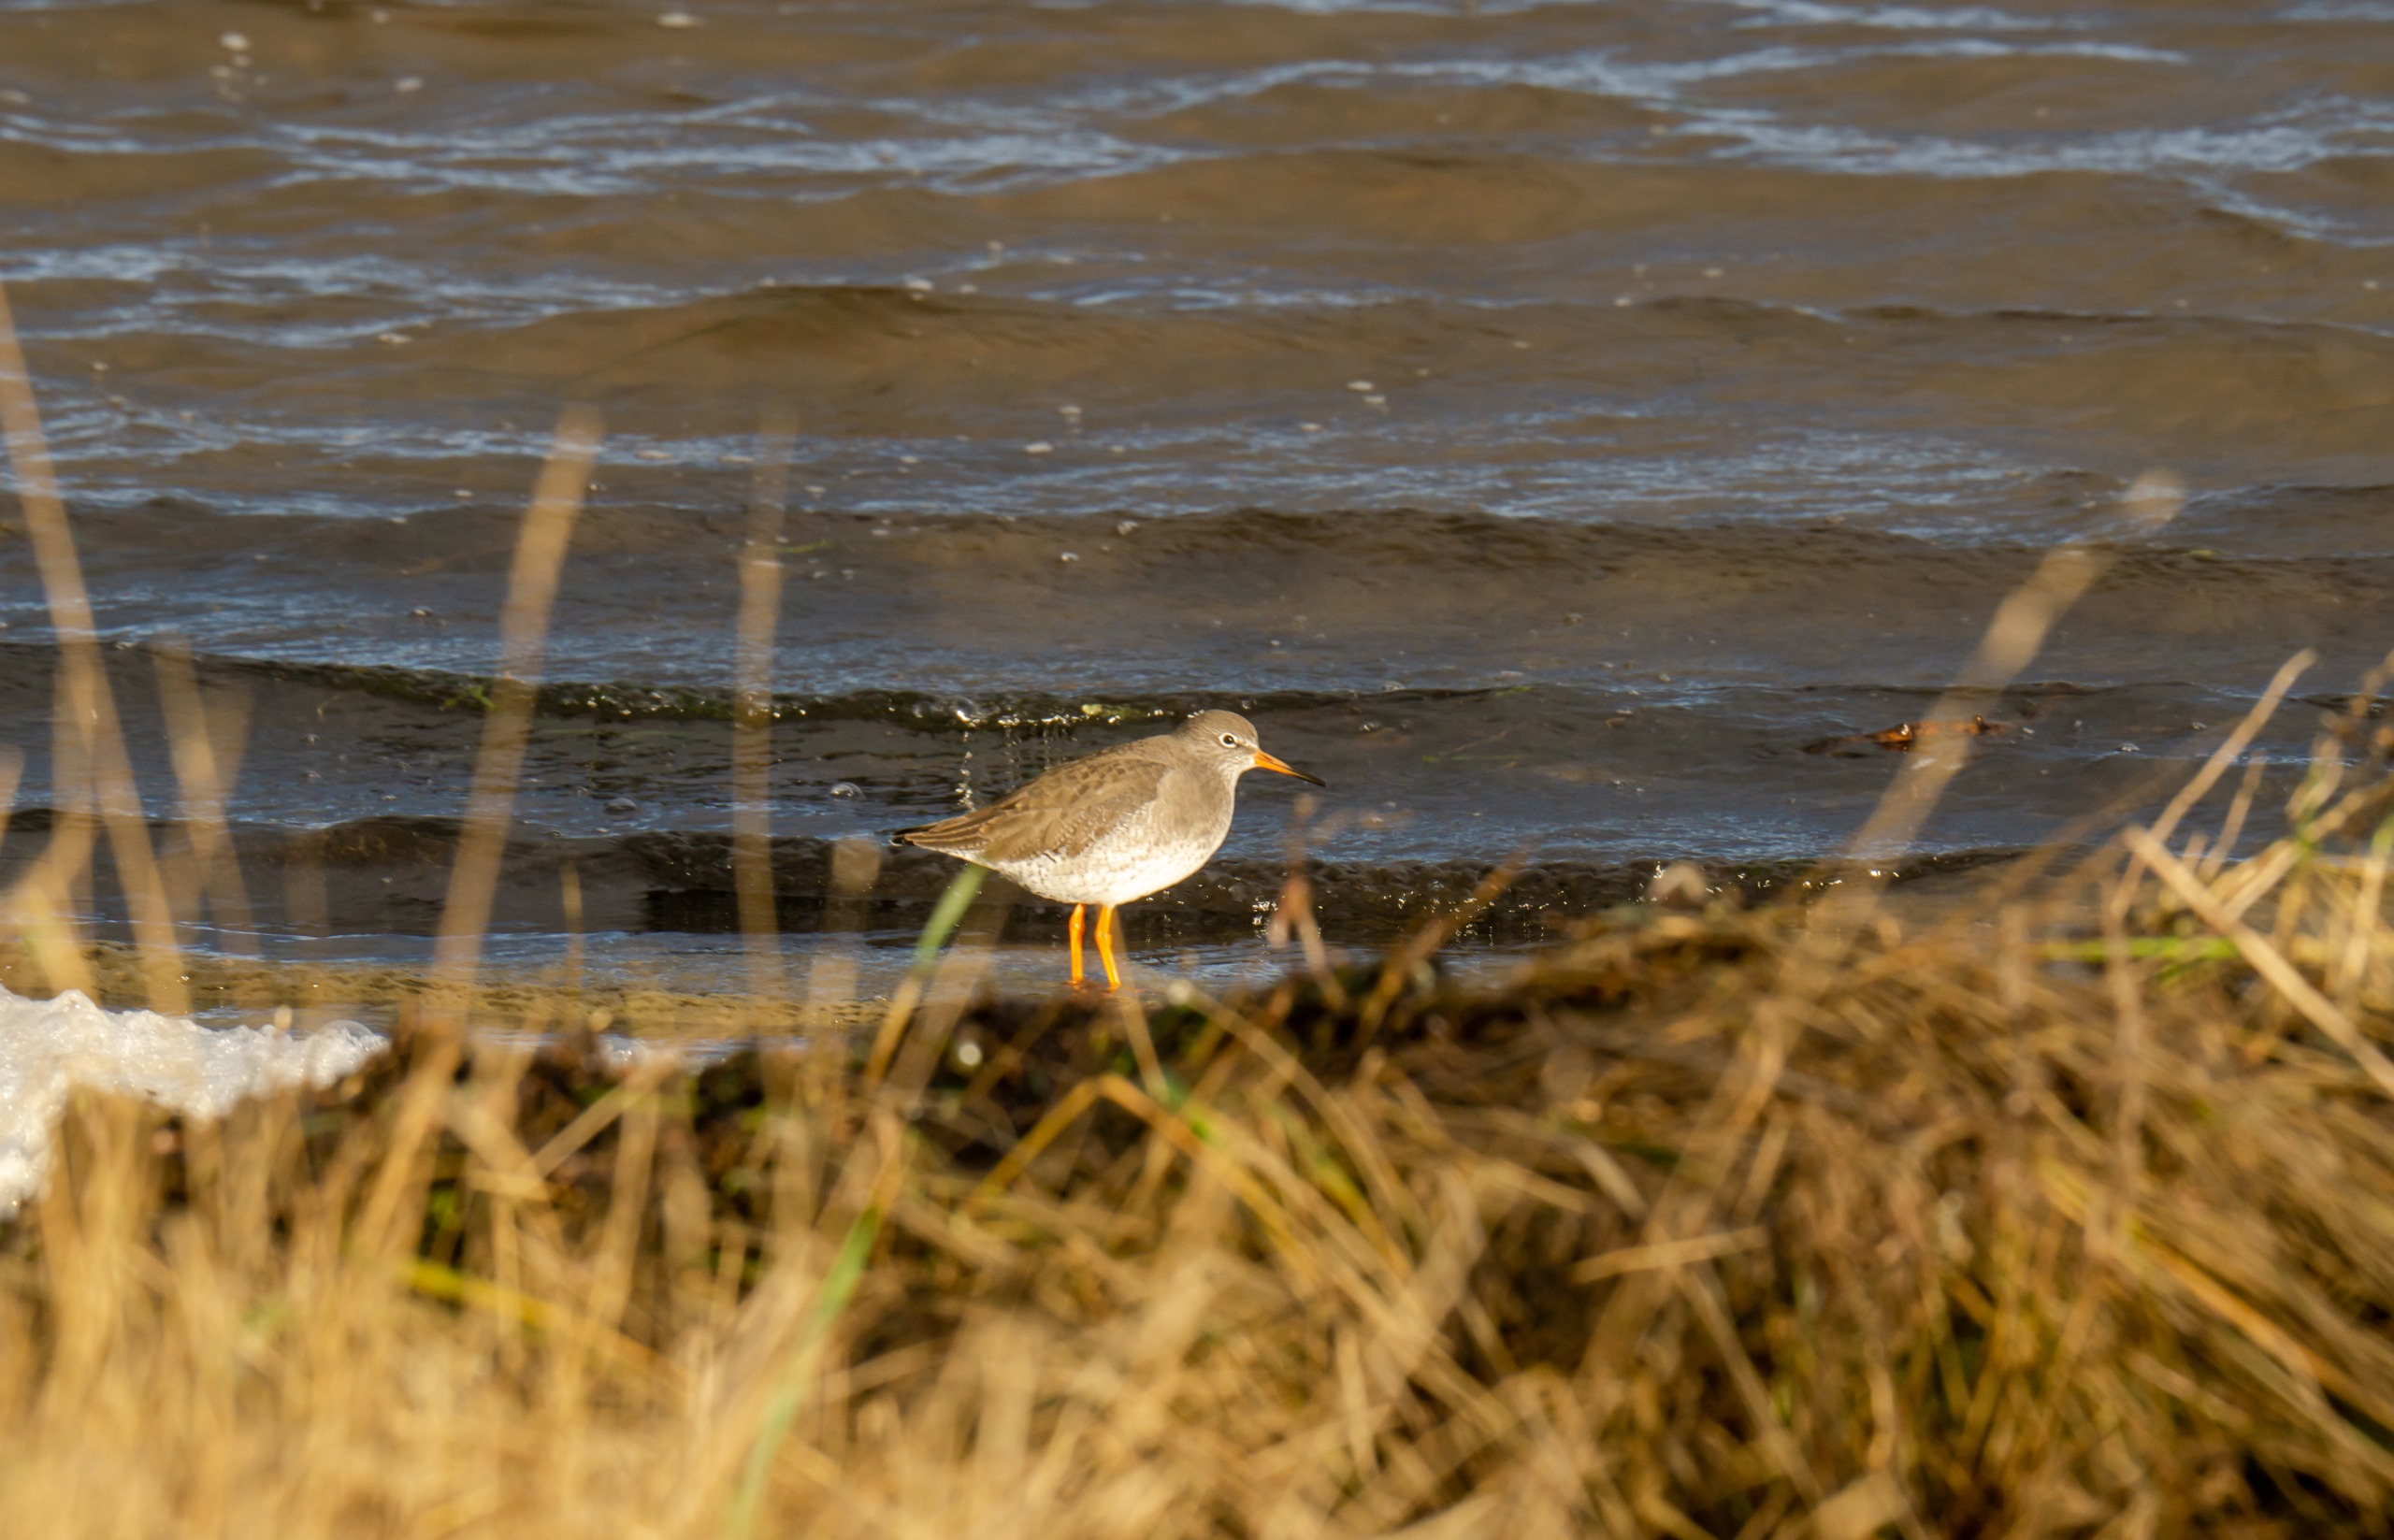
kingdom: Animalia
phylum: Chordata
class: Aves
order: Charadriiformes
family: Scolopacidae
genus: Tringa
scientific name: Tringa totanus
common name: Rødben
